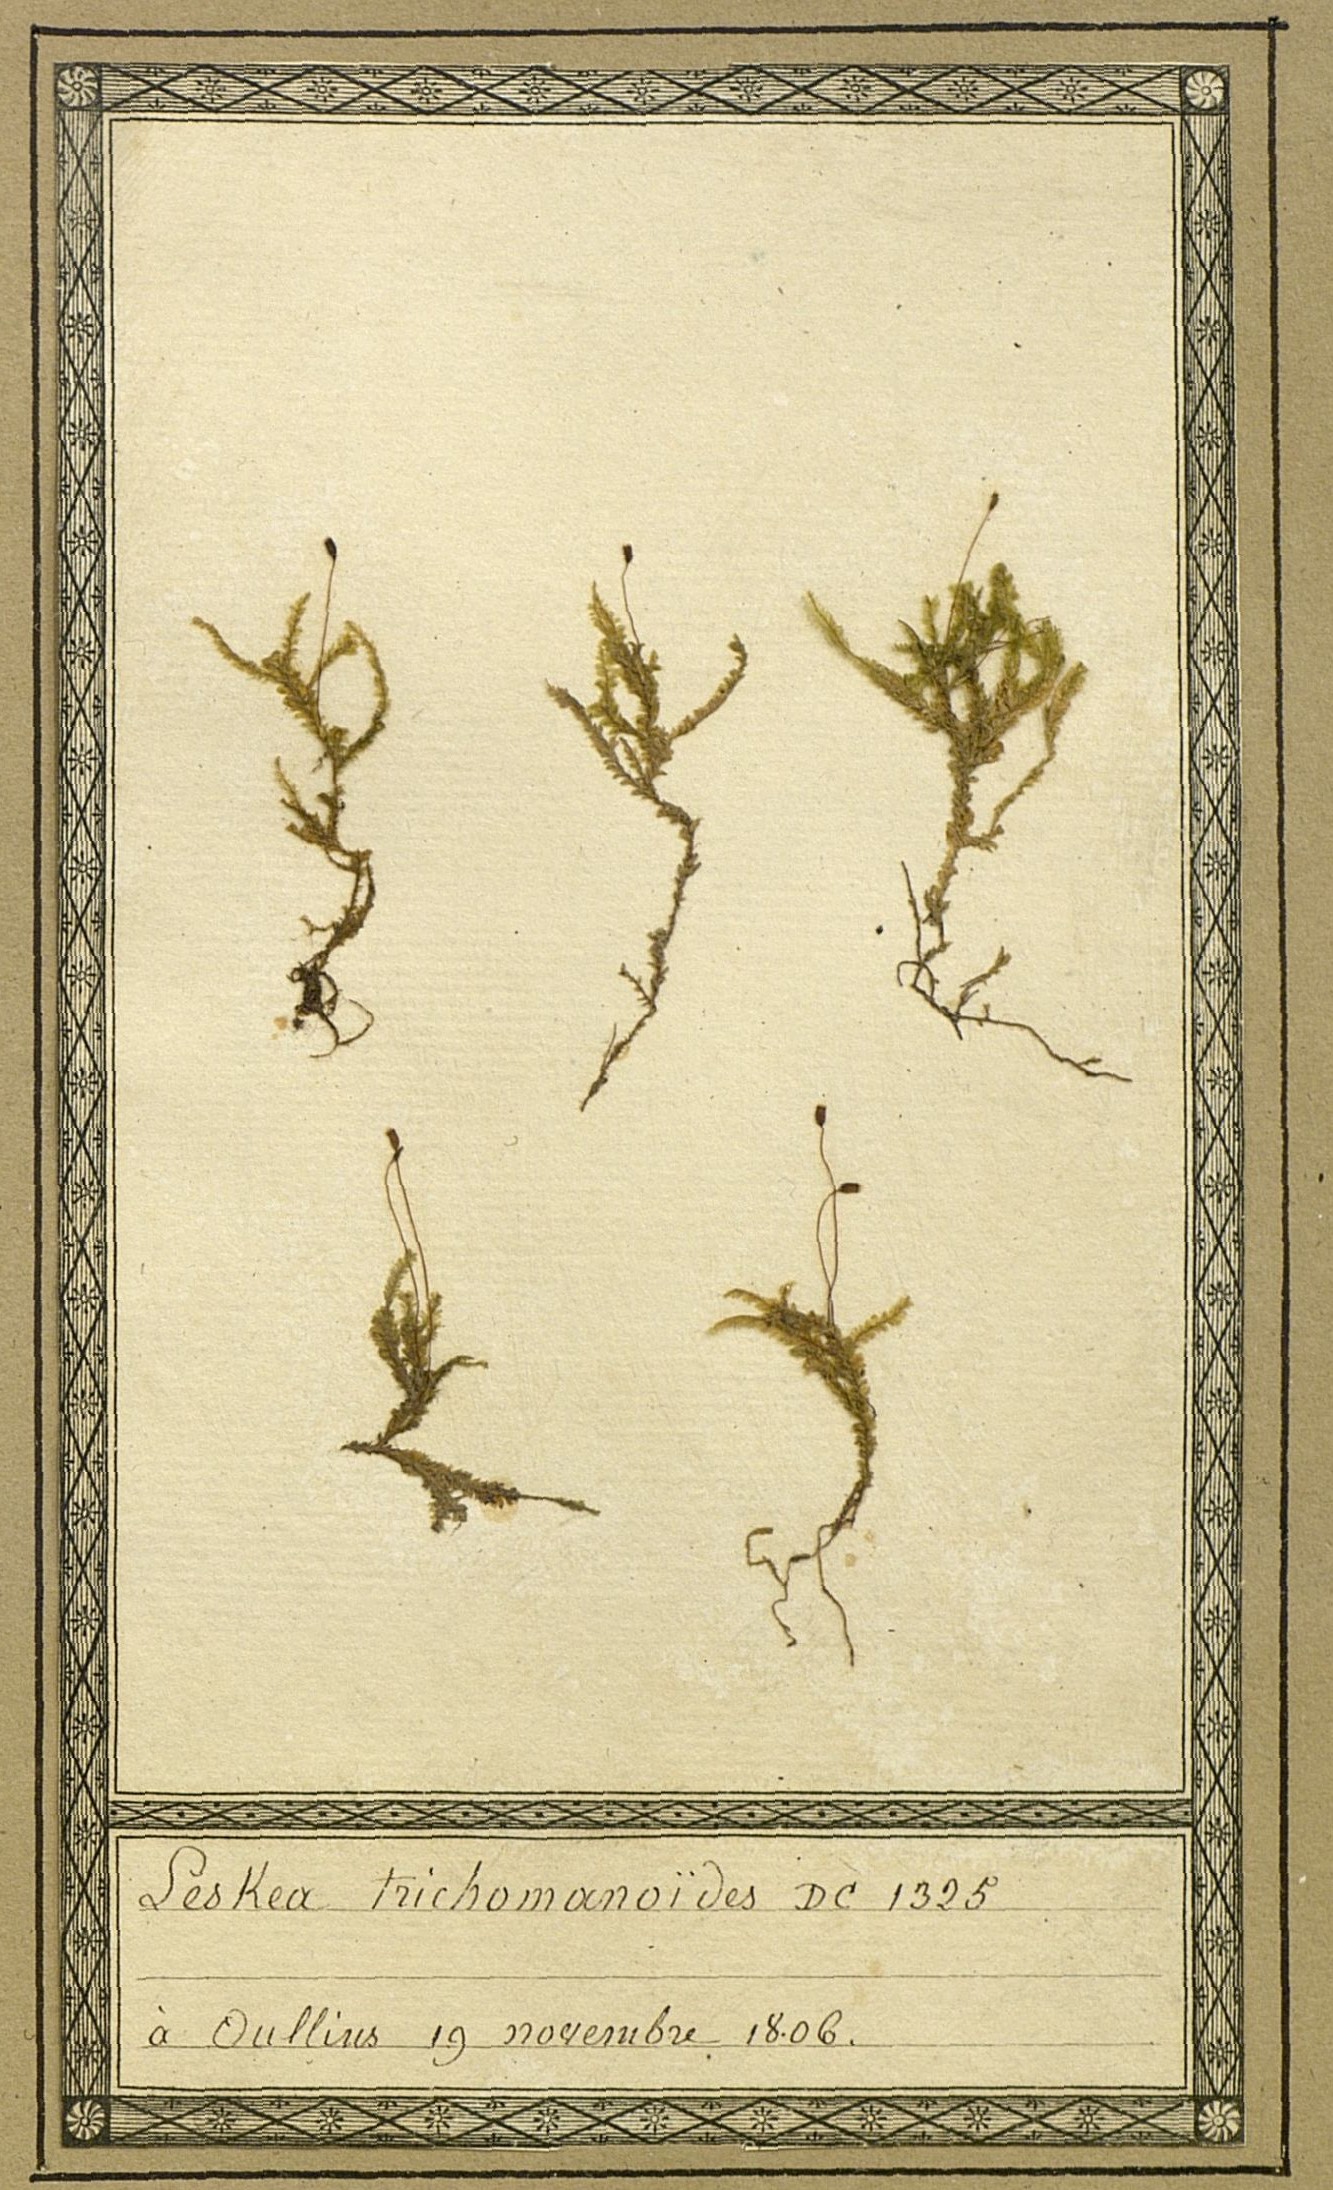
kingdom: Plantae
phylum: Bryophyta
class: Bryopsida
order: Hypnales
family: Neckeraceae
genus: Homalia
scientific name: Homalia trichomanoides
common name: Lime homalia moss
